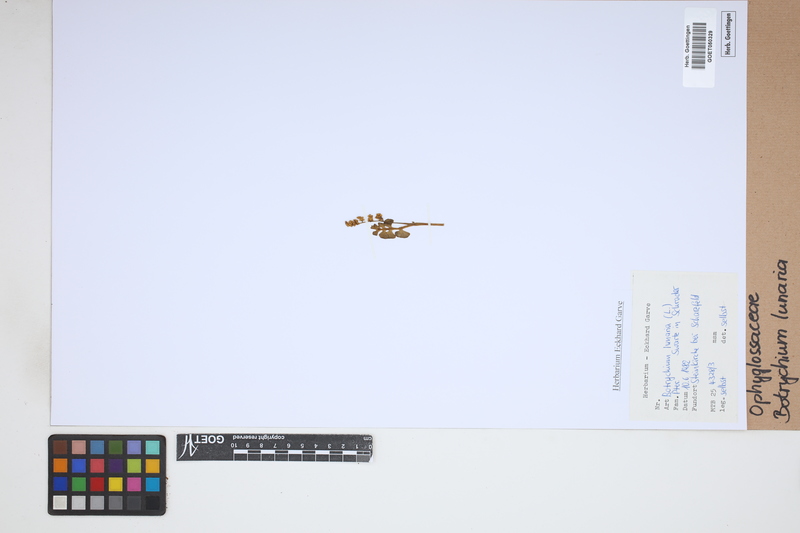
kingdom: Plantae
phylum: Tracheophyta
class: Polypodiopsida
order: Ophioglossales
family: Ophioglossaceae
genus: Botrychium
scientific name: Botrychium lunaria
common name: Moonwort
